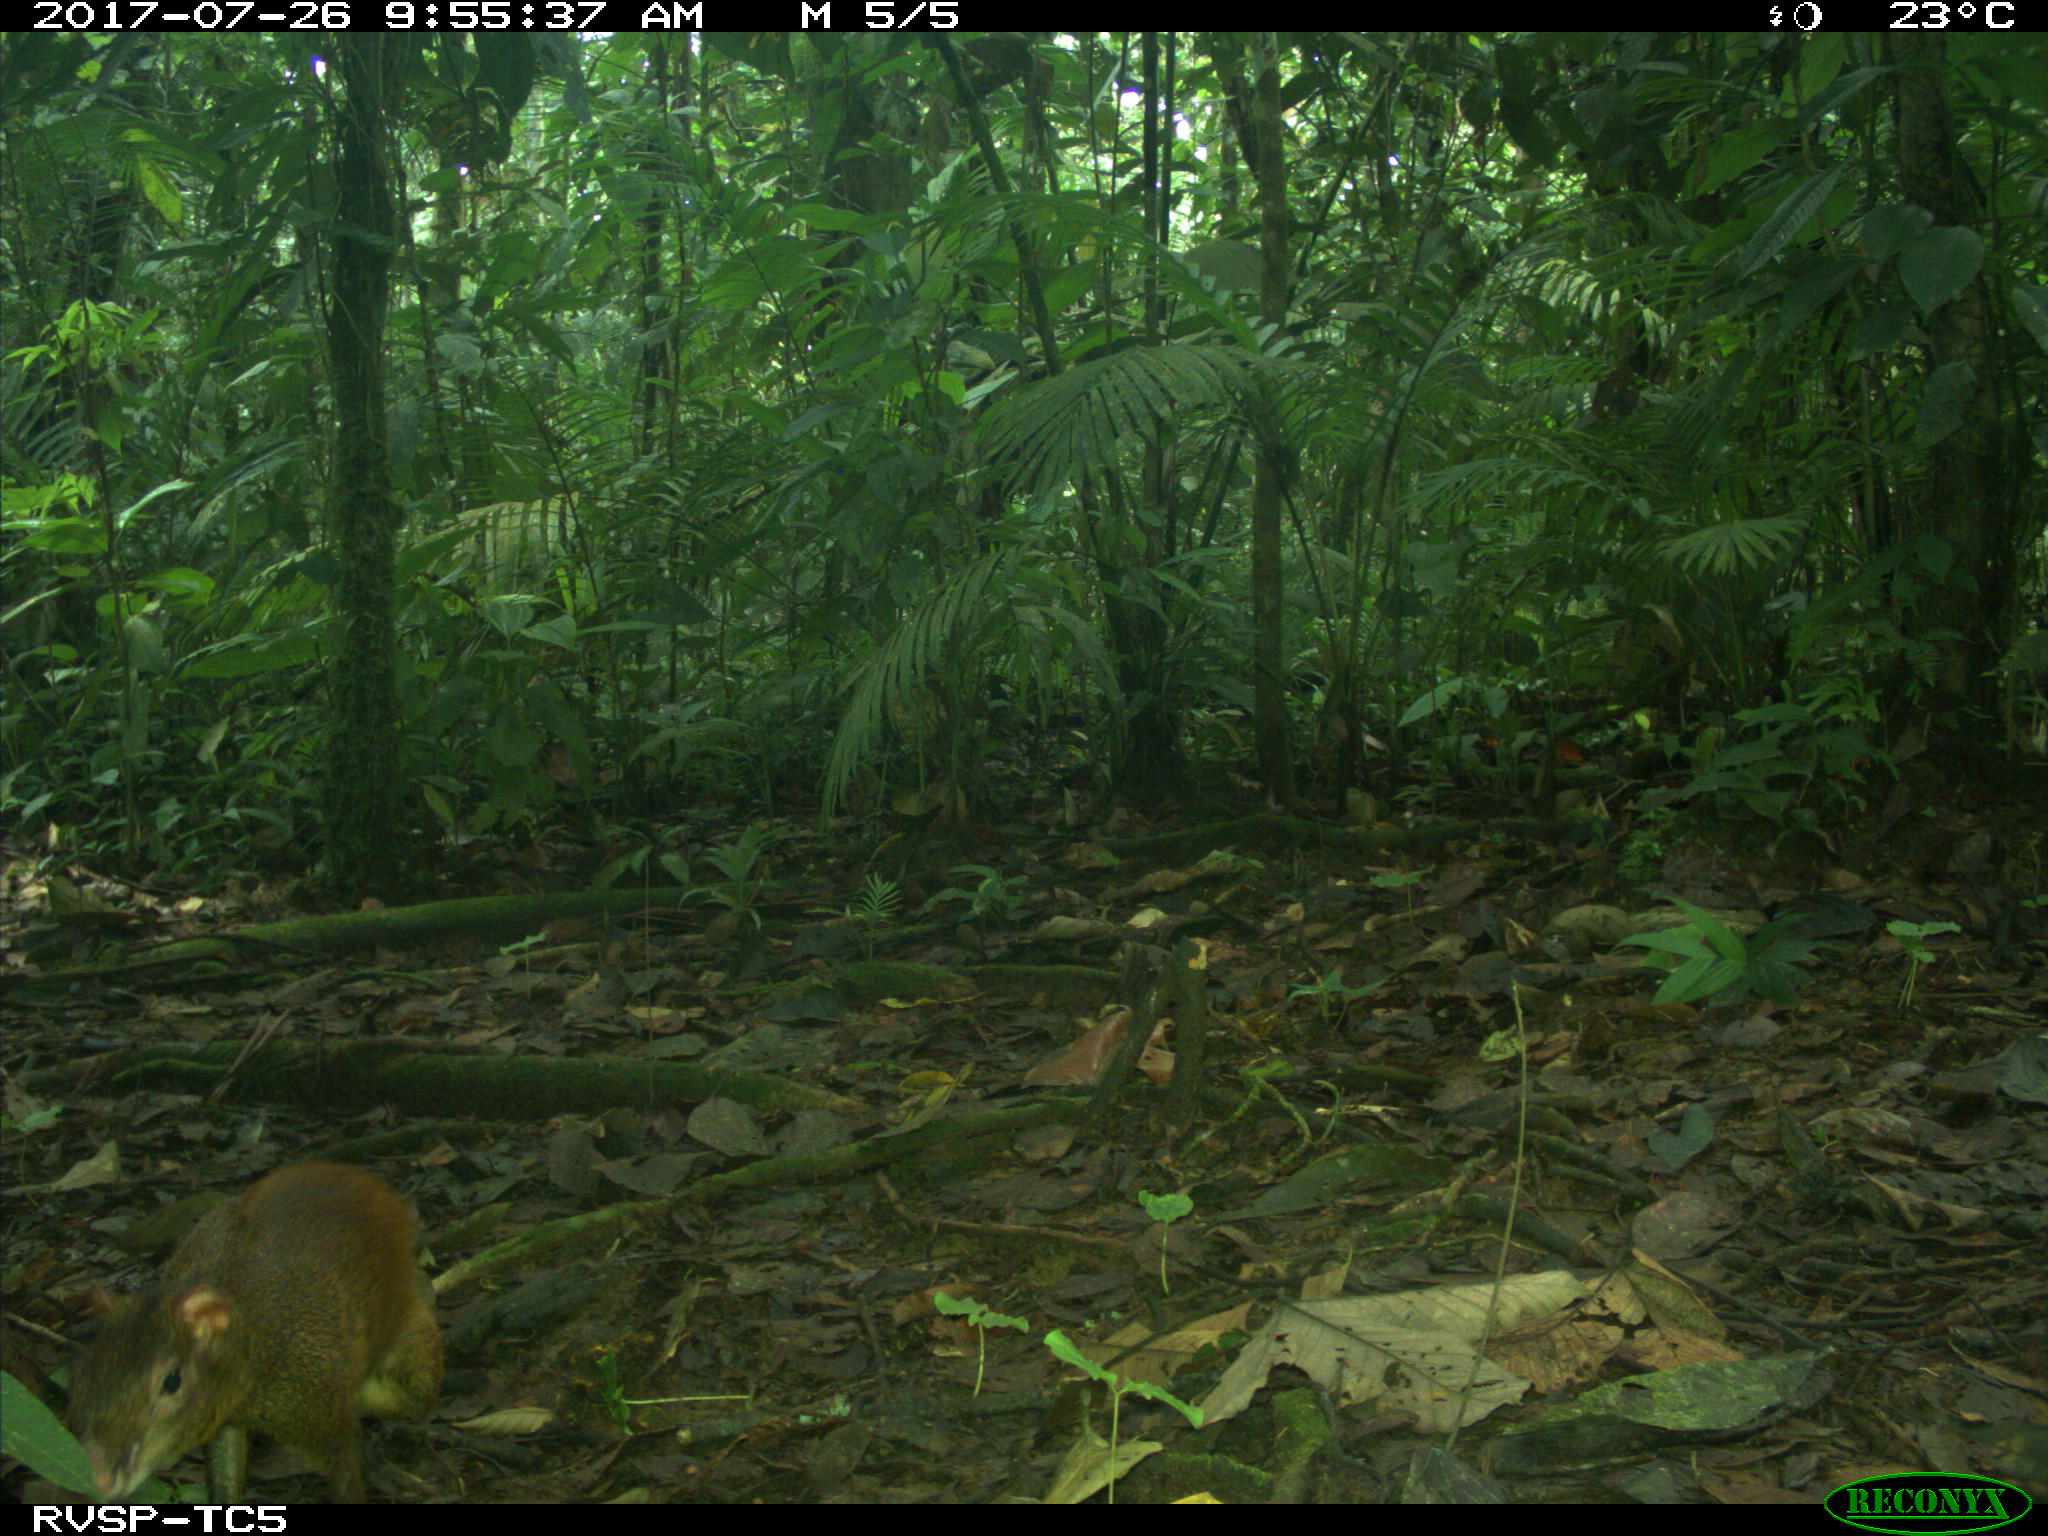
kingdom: Animalia
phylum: Chordata
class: Mammalia
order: Rodentia
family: Dasyproctidae
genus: Dasyprocta
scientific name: Dasyprocta punctata
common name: Central american agouti
